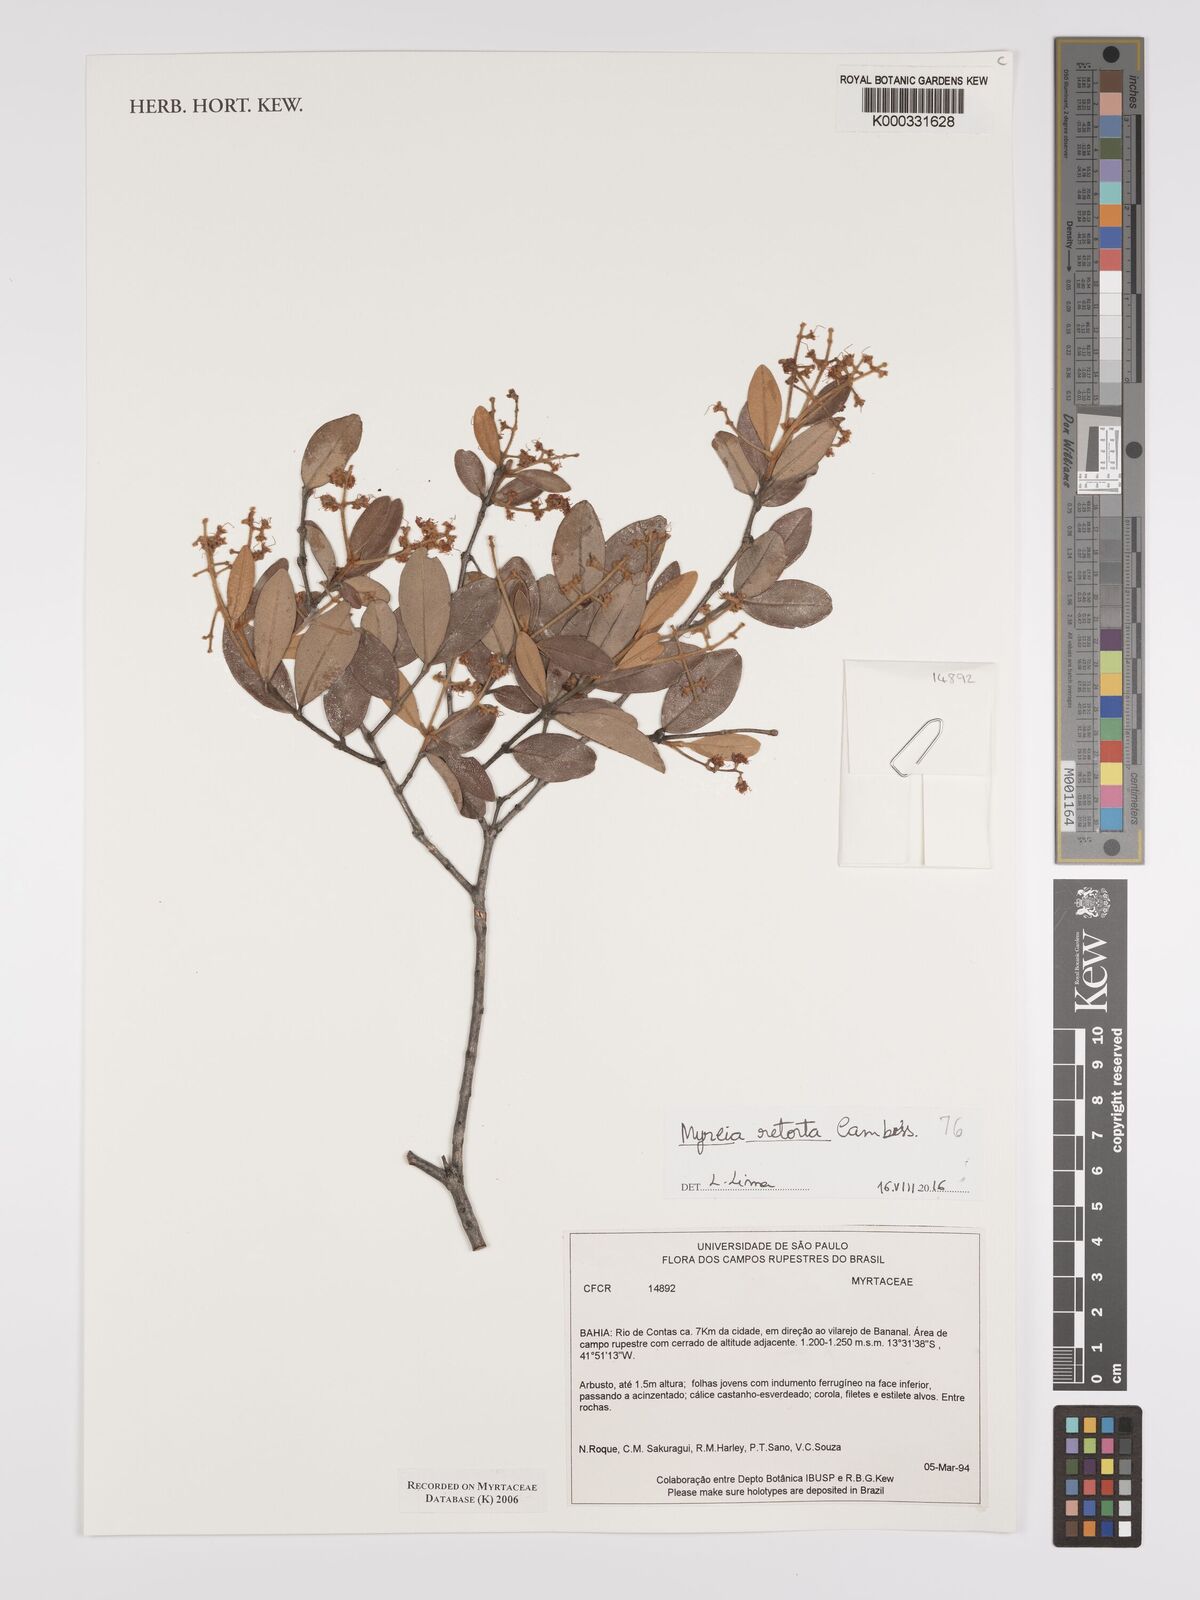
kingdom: Plantae
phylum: Tracheophyta
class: Magnoliopsida
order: Myrtales
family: Myrtaceae
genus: Myrcia
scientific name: Myrcia
